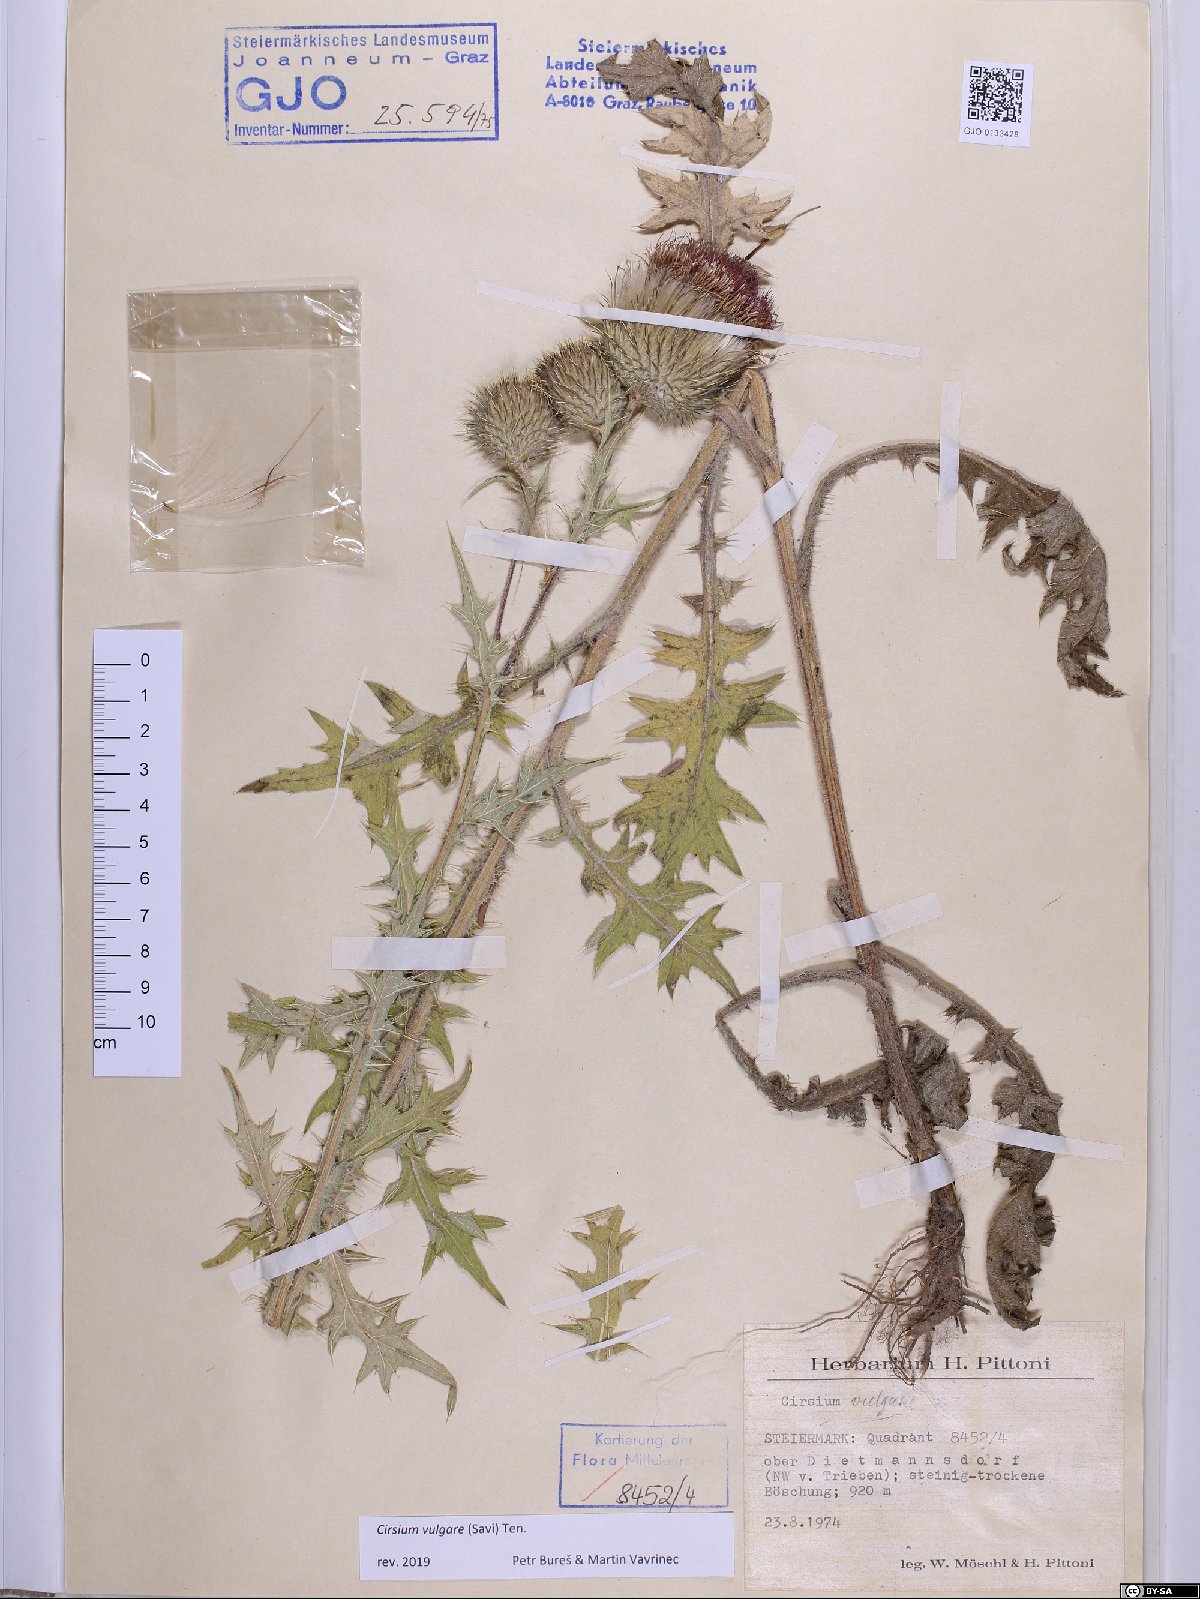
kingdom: Plantae
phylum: Tracheophyta
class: Magnoliopsida
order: Asterales
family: Asteraceae
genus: Cirsium
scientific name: Cirsium vulgare
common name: Bull thistle
